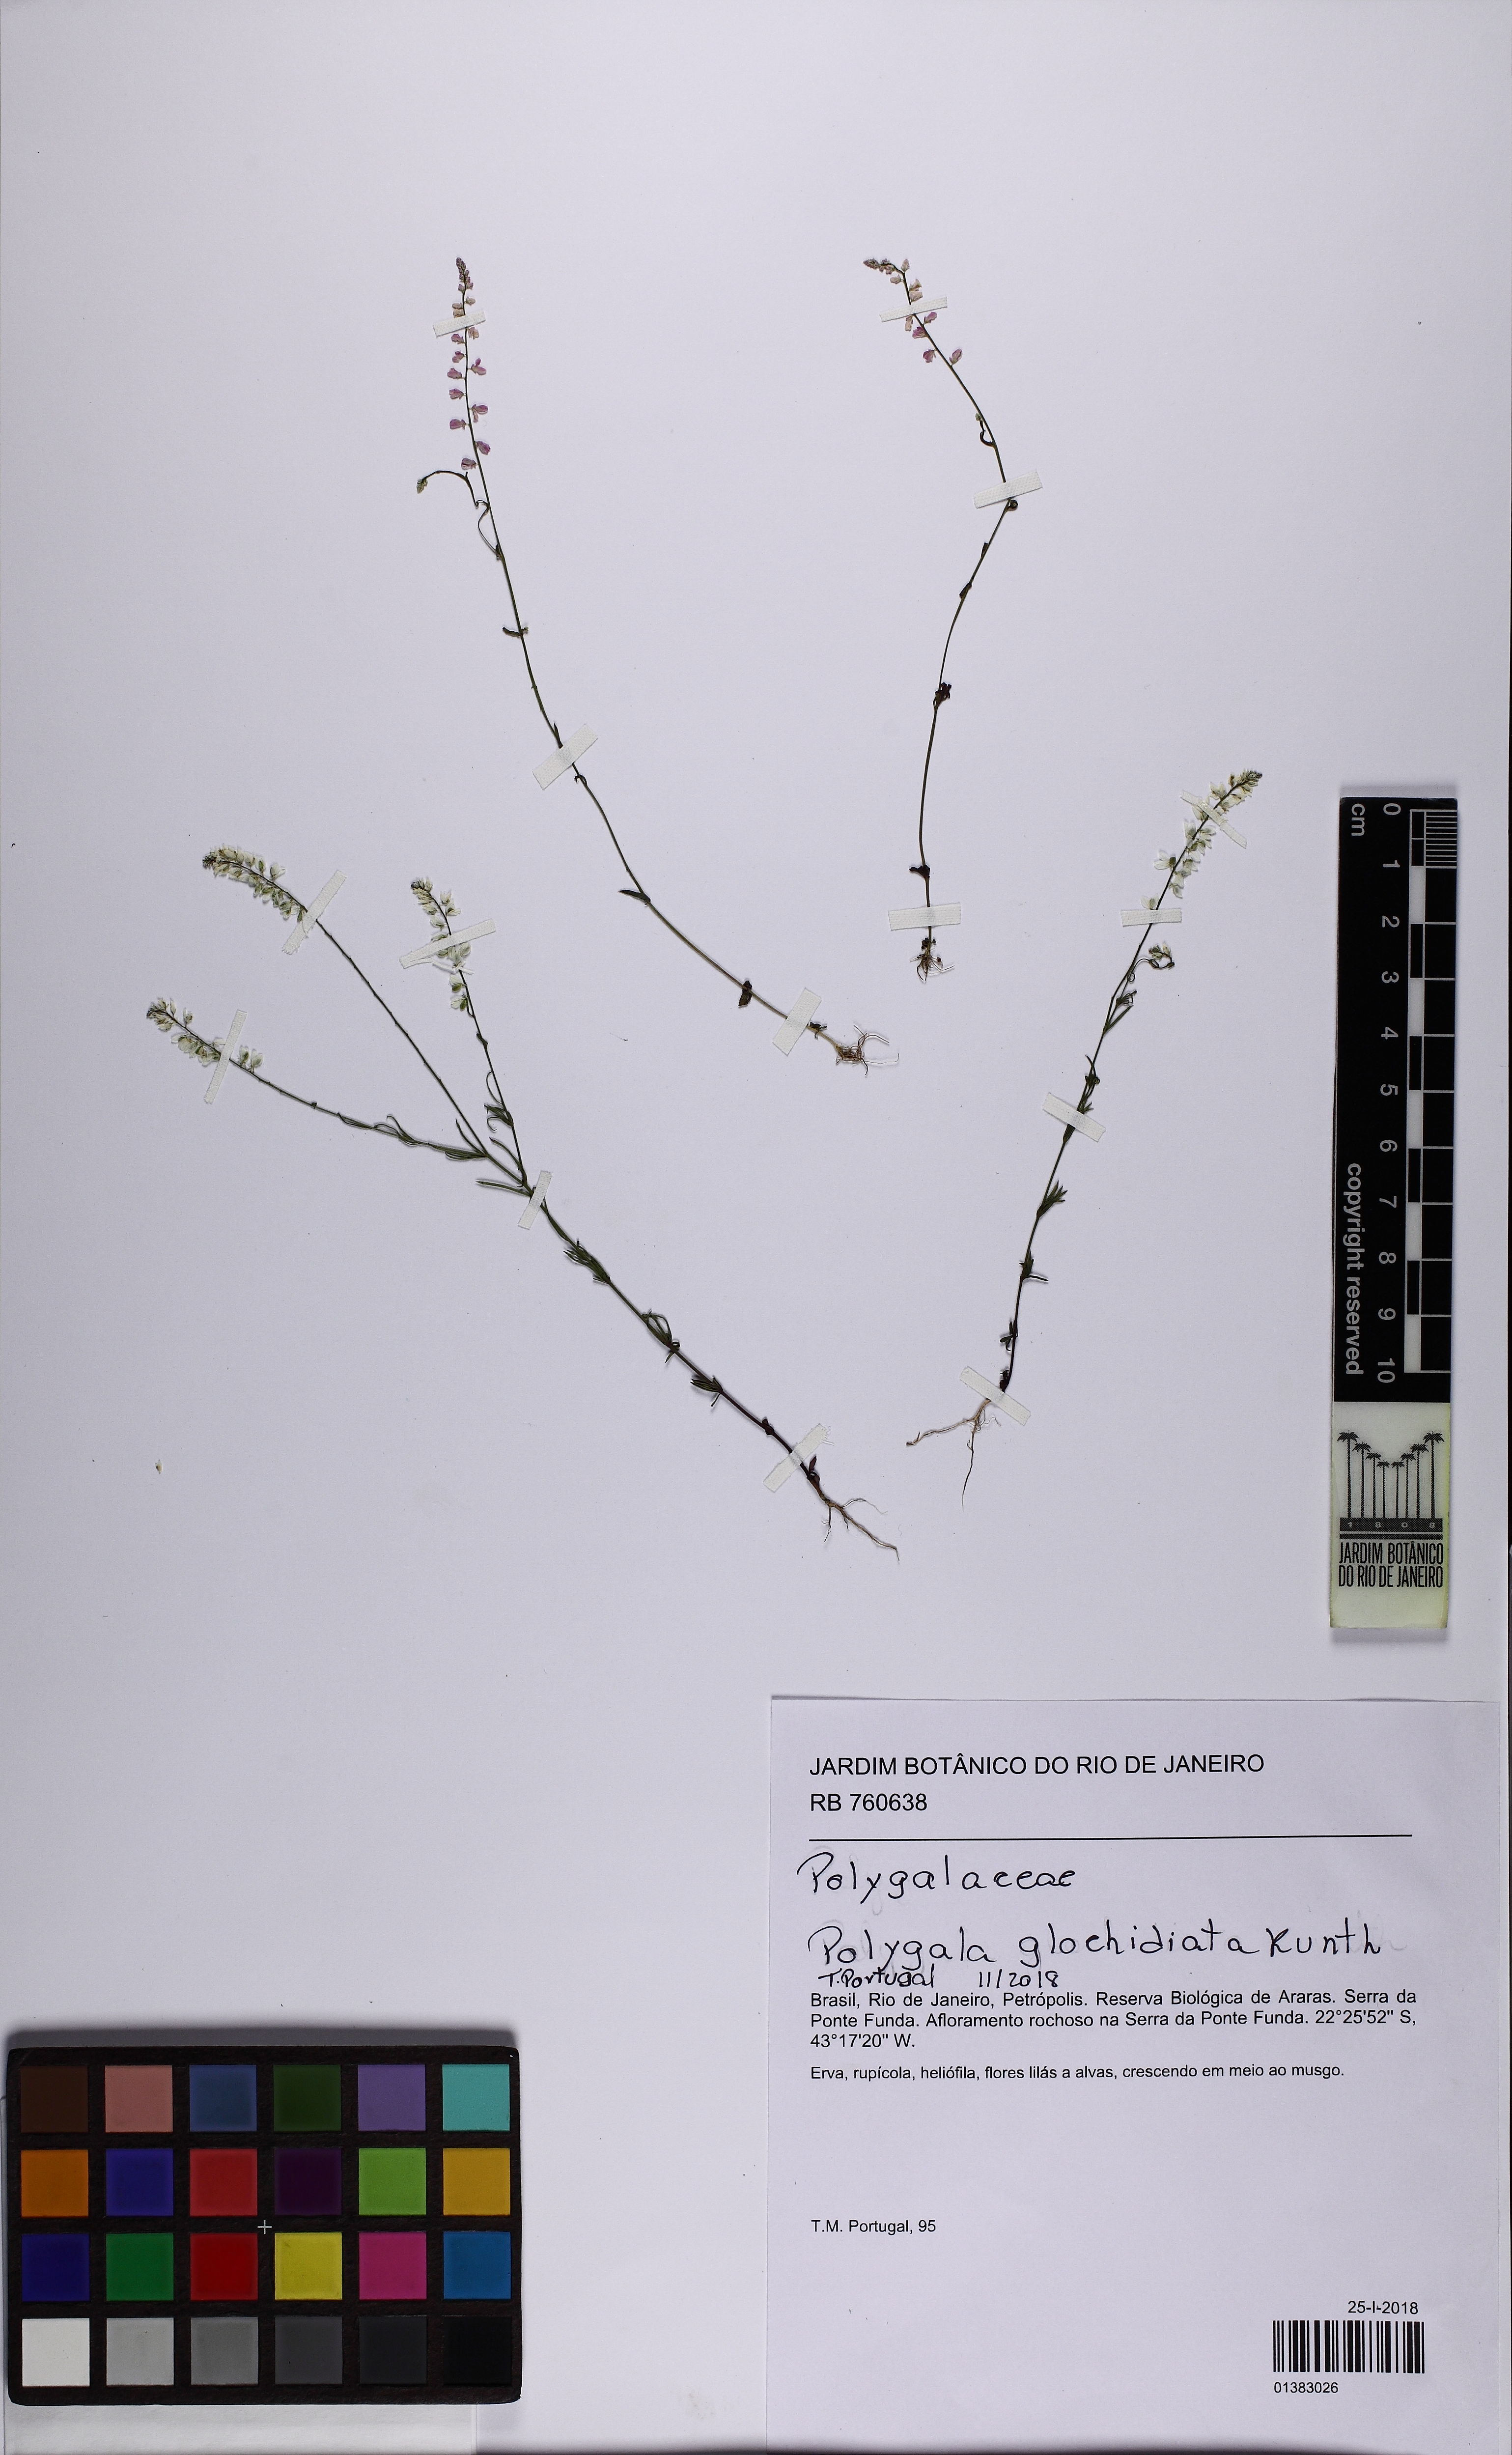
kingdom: Plantae
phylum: Tracheophyta
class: Magnoliopsida
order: Fabales
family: Polygalaceae
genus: Polygala
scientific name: Polygala glochidiata
